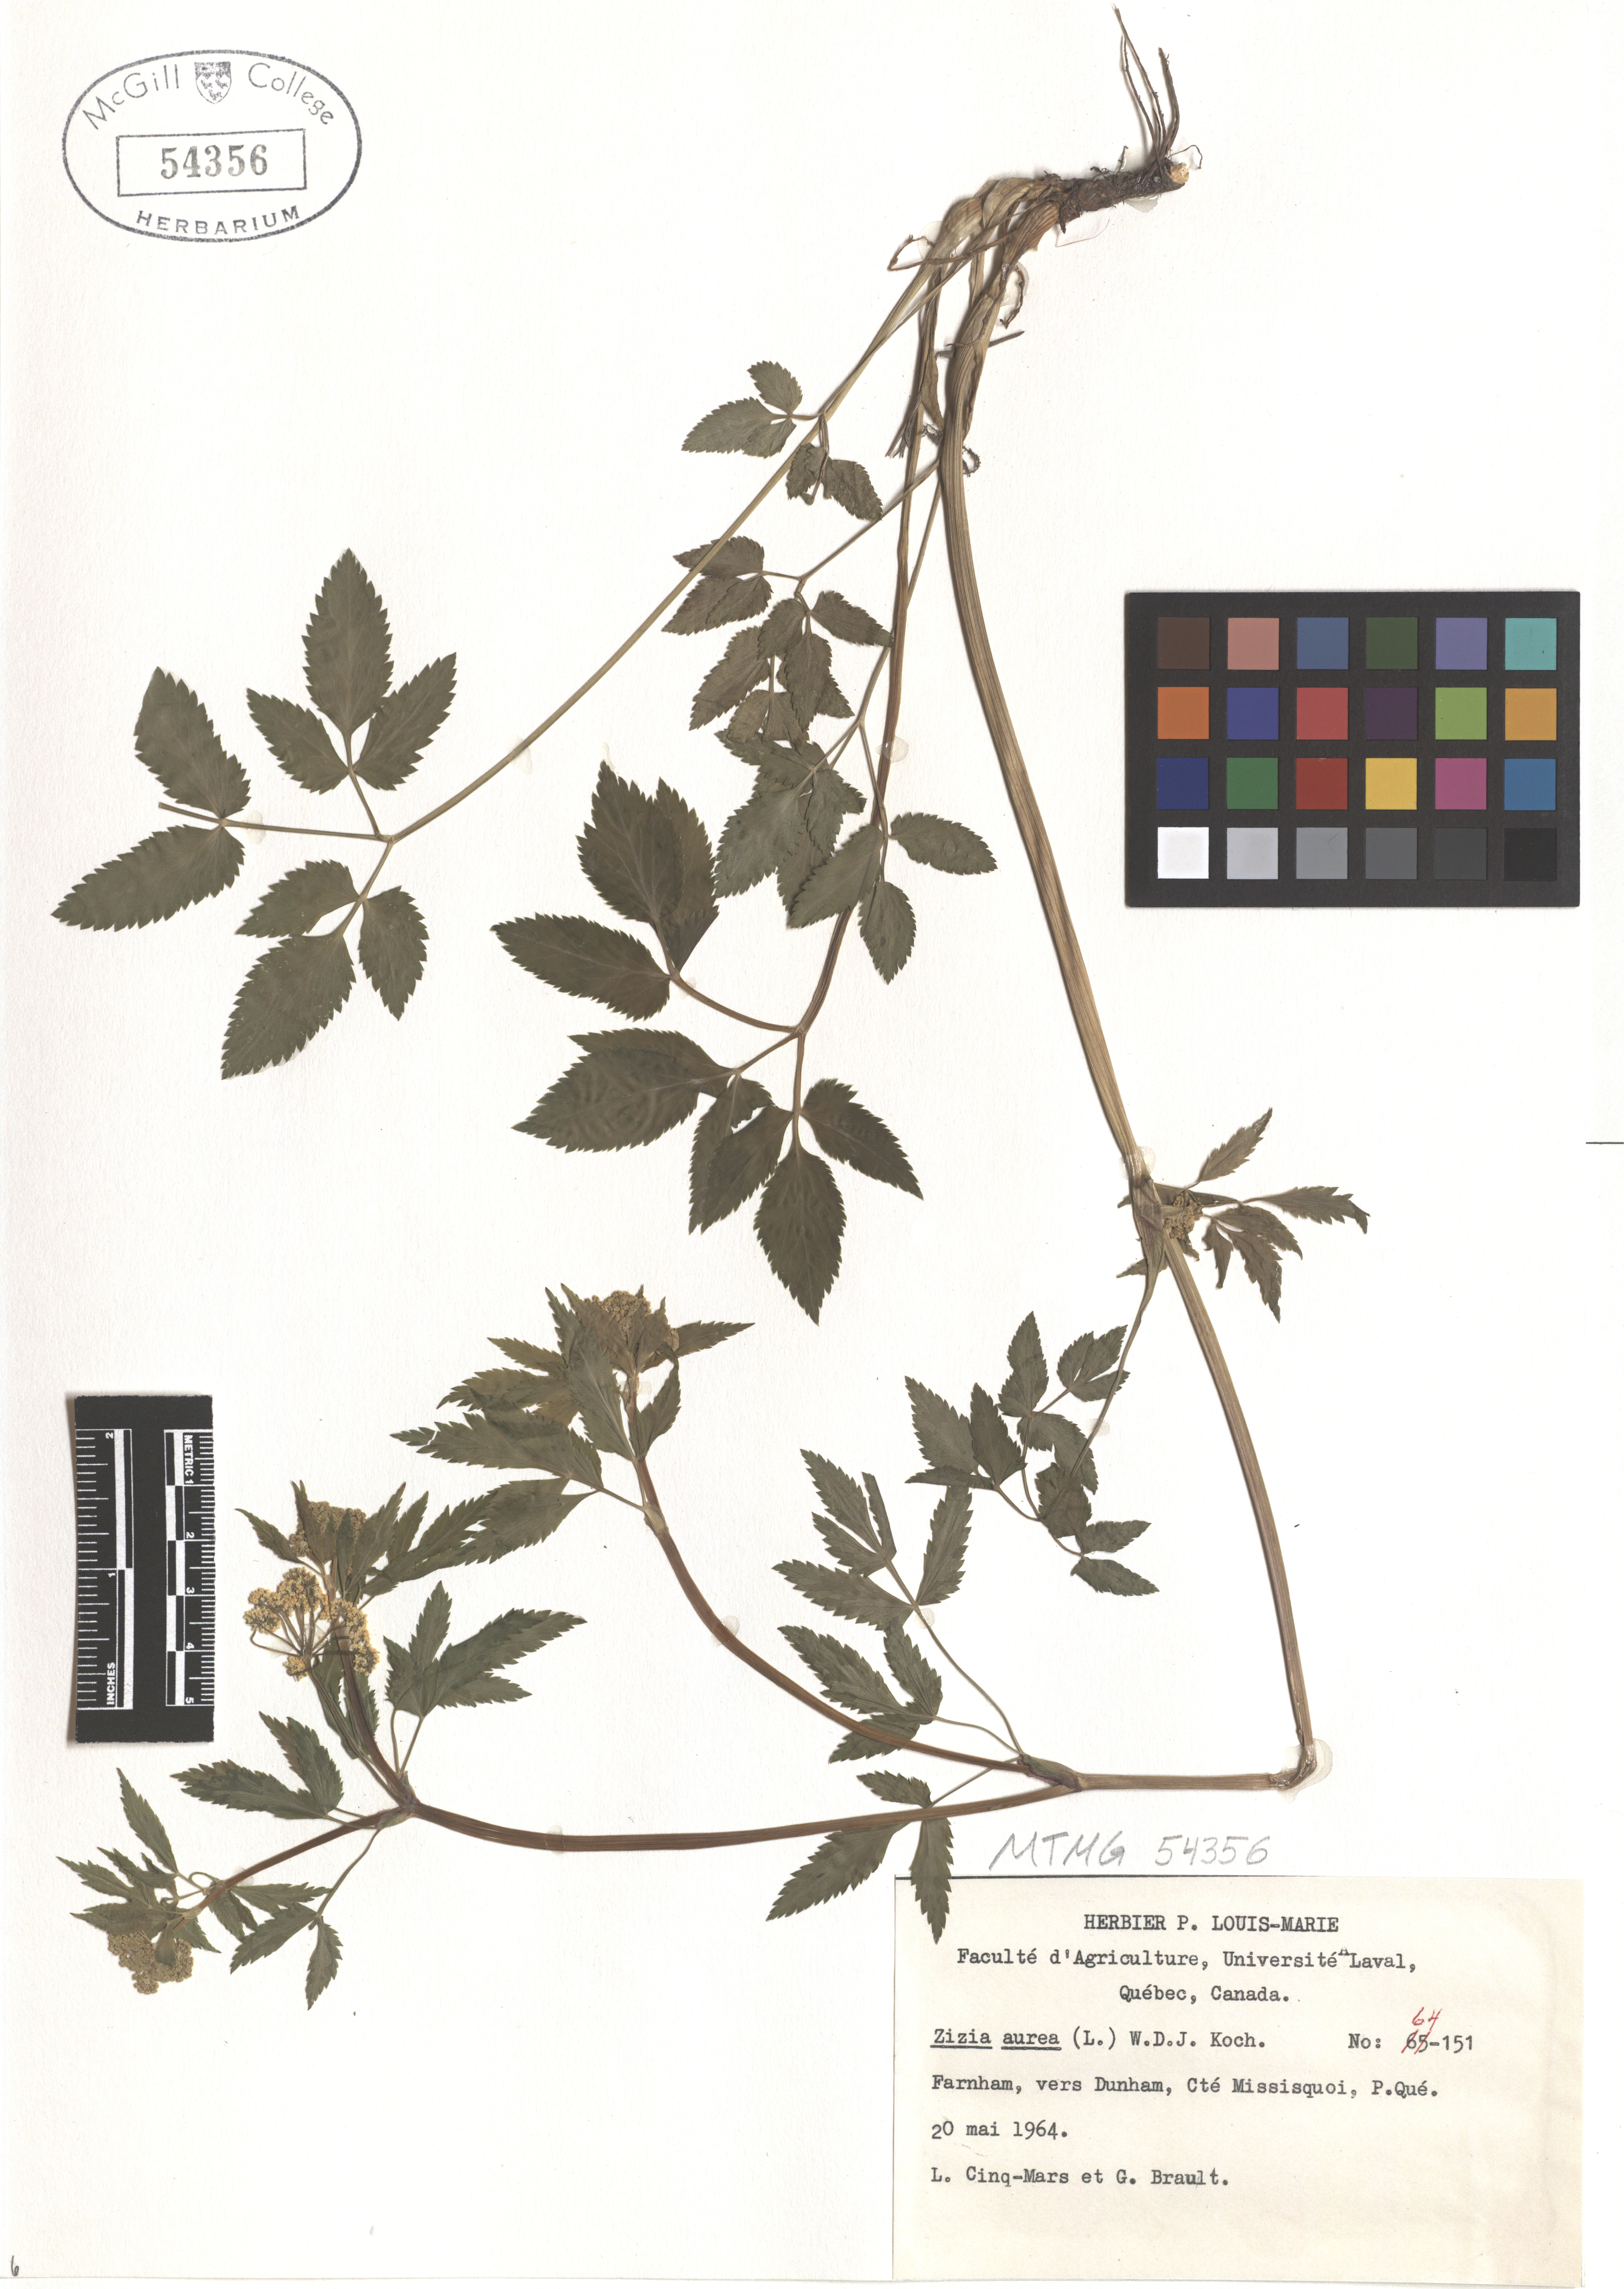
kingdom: Plantae
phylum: Tracheophyta
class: Magnoliopsida
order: Apiales
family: Apiaceae
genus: Zizia
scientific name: Zizia aurea
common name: Golden alexanders
